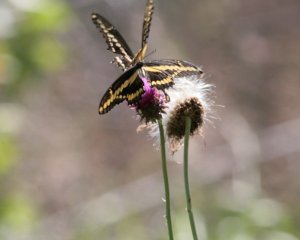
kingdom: Animalia
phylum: Arthropoda
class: Insecta
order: Lepidoptera
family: Papilionidae
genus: Papilio
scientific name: Papilio cresphontes
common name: Eastern Giant Swallowtail
